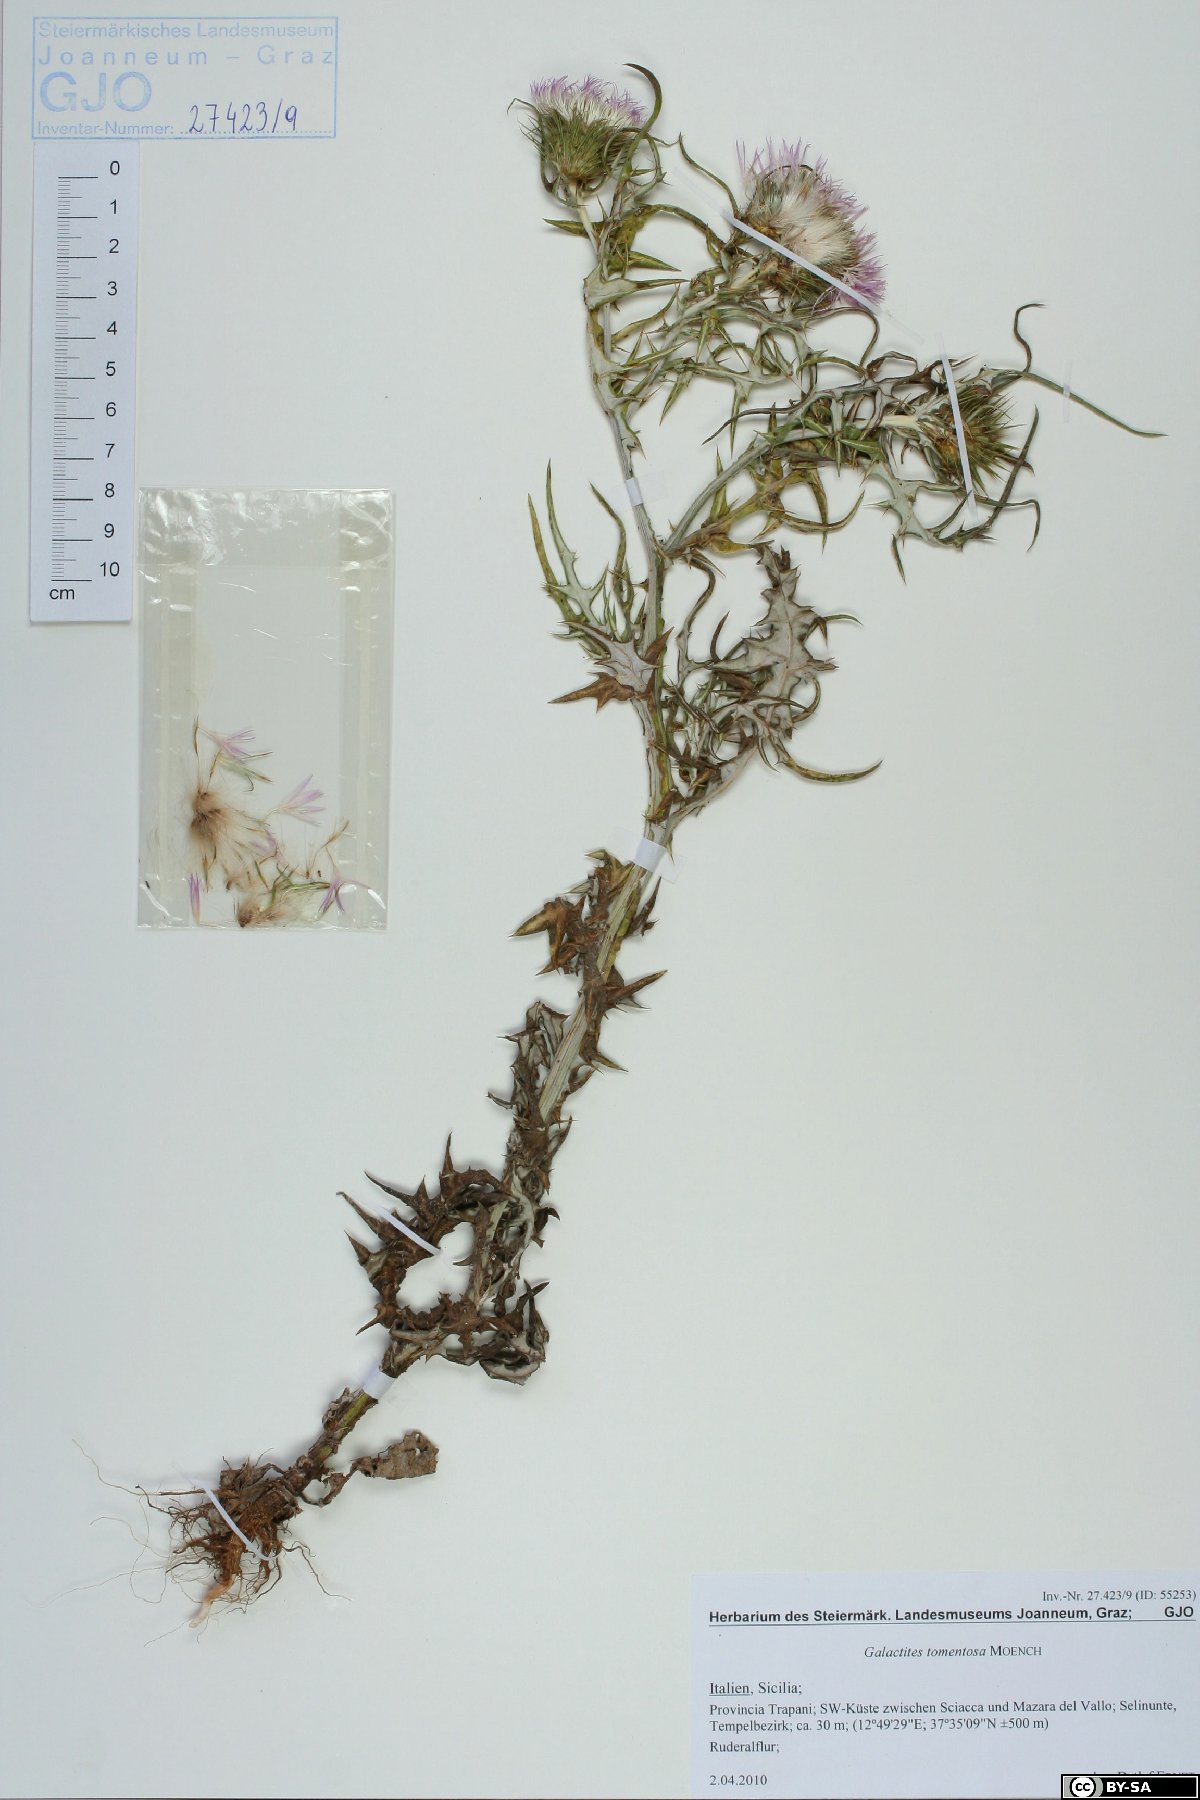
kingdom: Plantae
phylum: Tracheophyta
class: Magnoliopsida
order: Asterales
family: Asteraceae
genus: Galactites
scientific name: Galactites tomentosa
